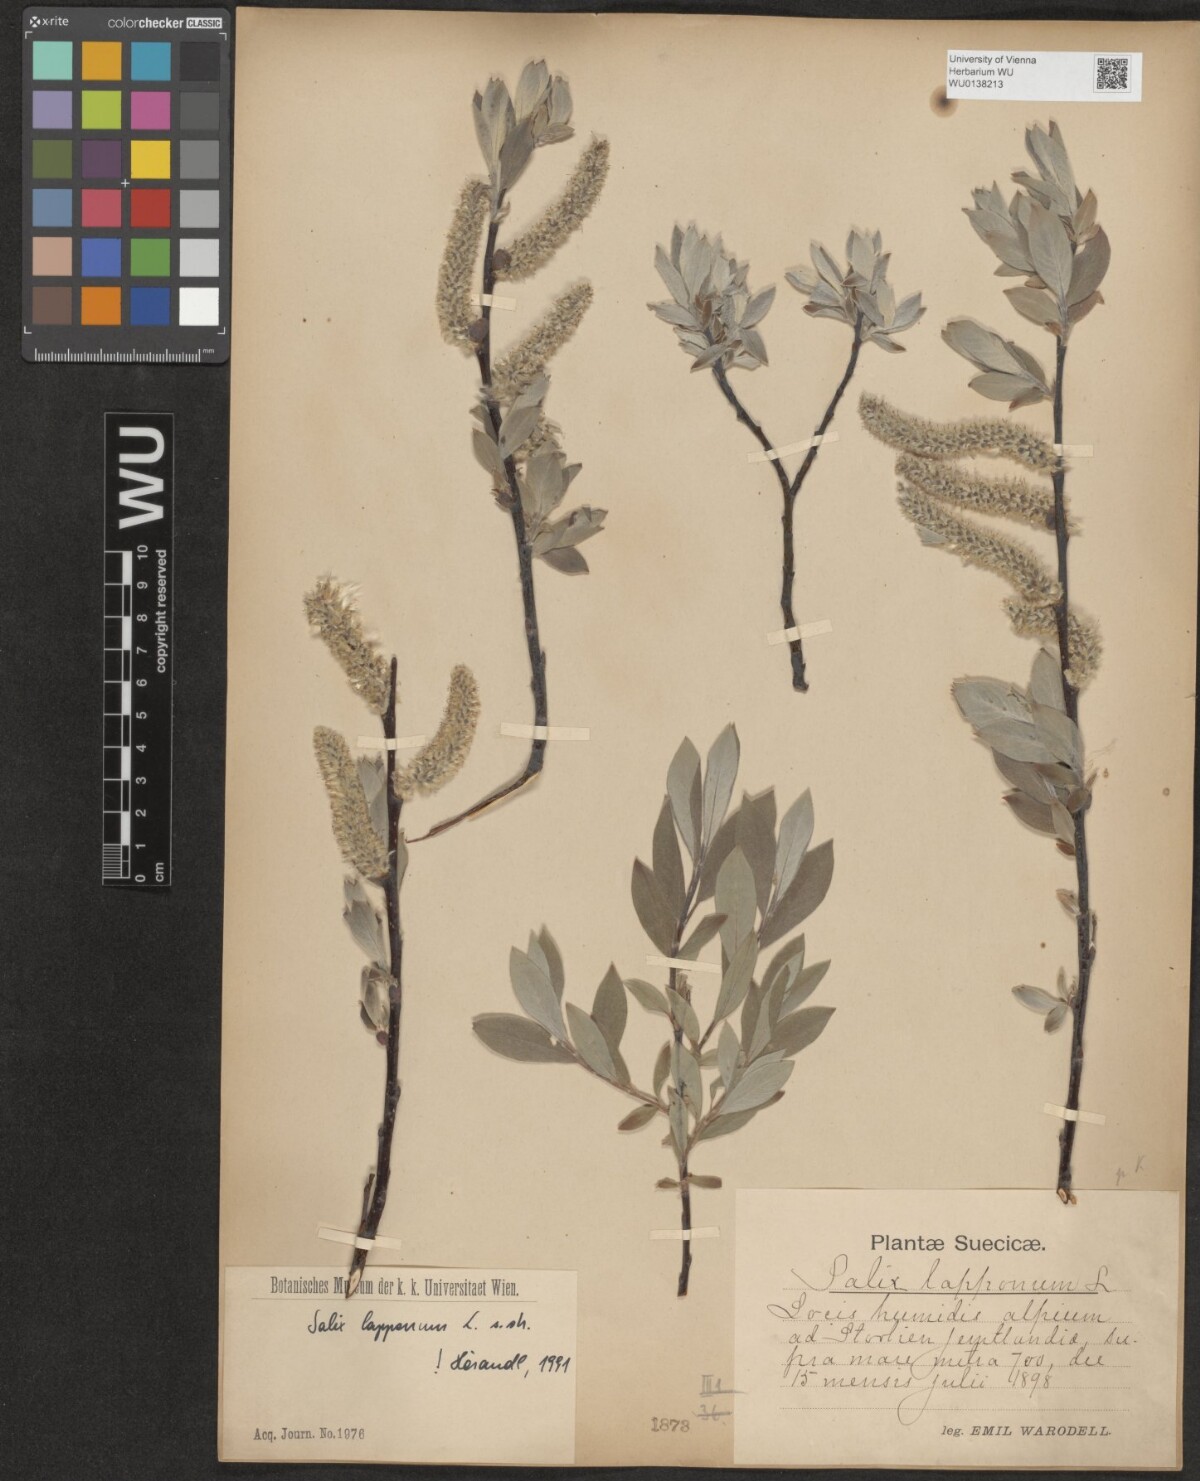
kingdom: Plantae
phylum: Tracheophyta
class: Magnoliopsida
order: Malpighiales
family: Salicaceae
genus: Salix
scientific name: Salix lapponum
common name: Downy willow
